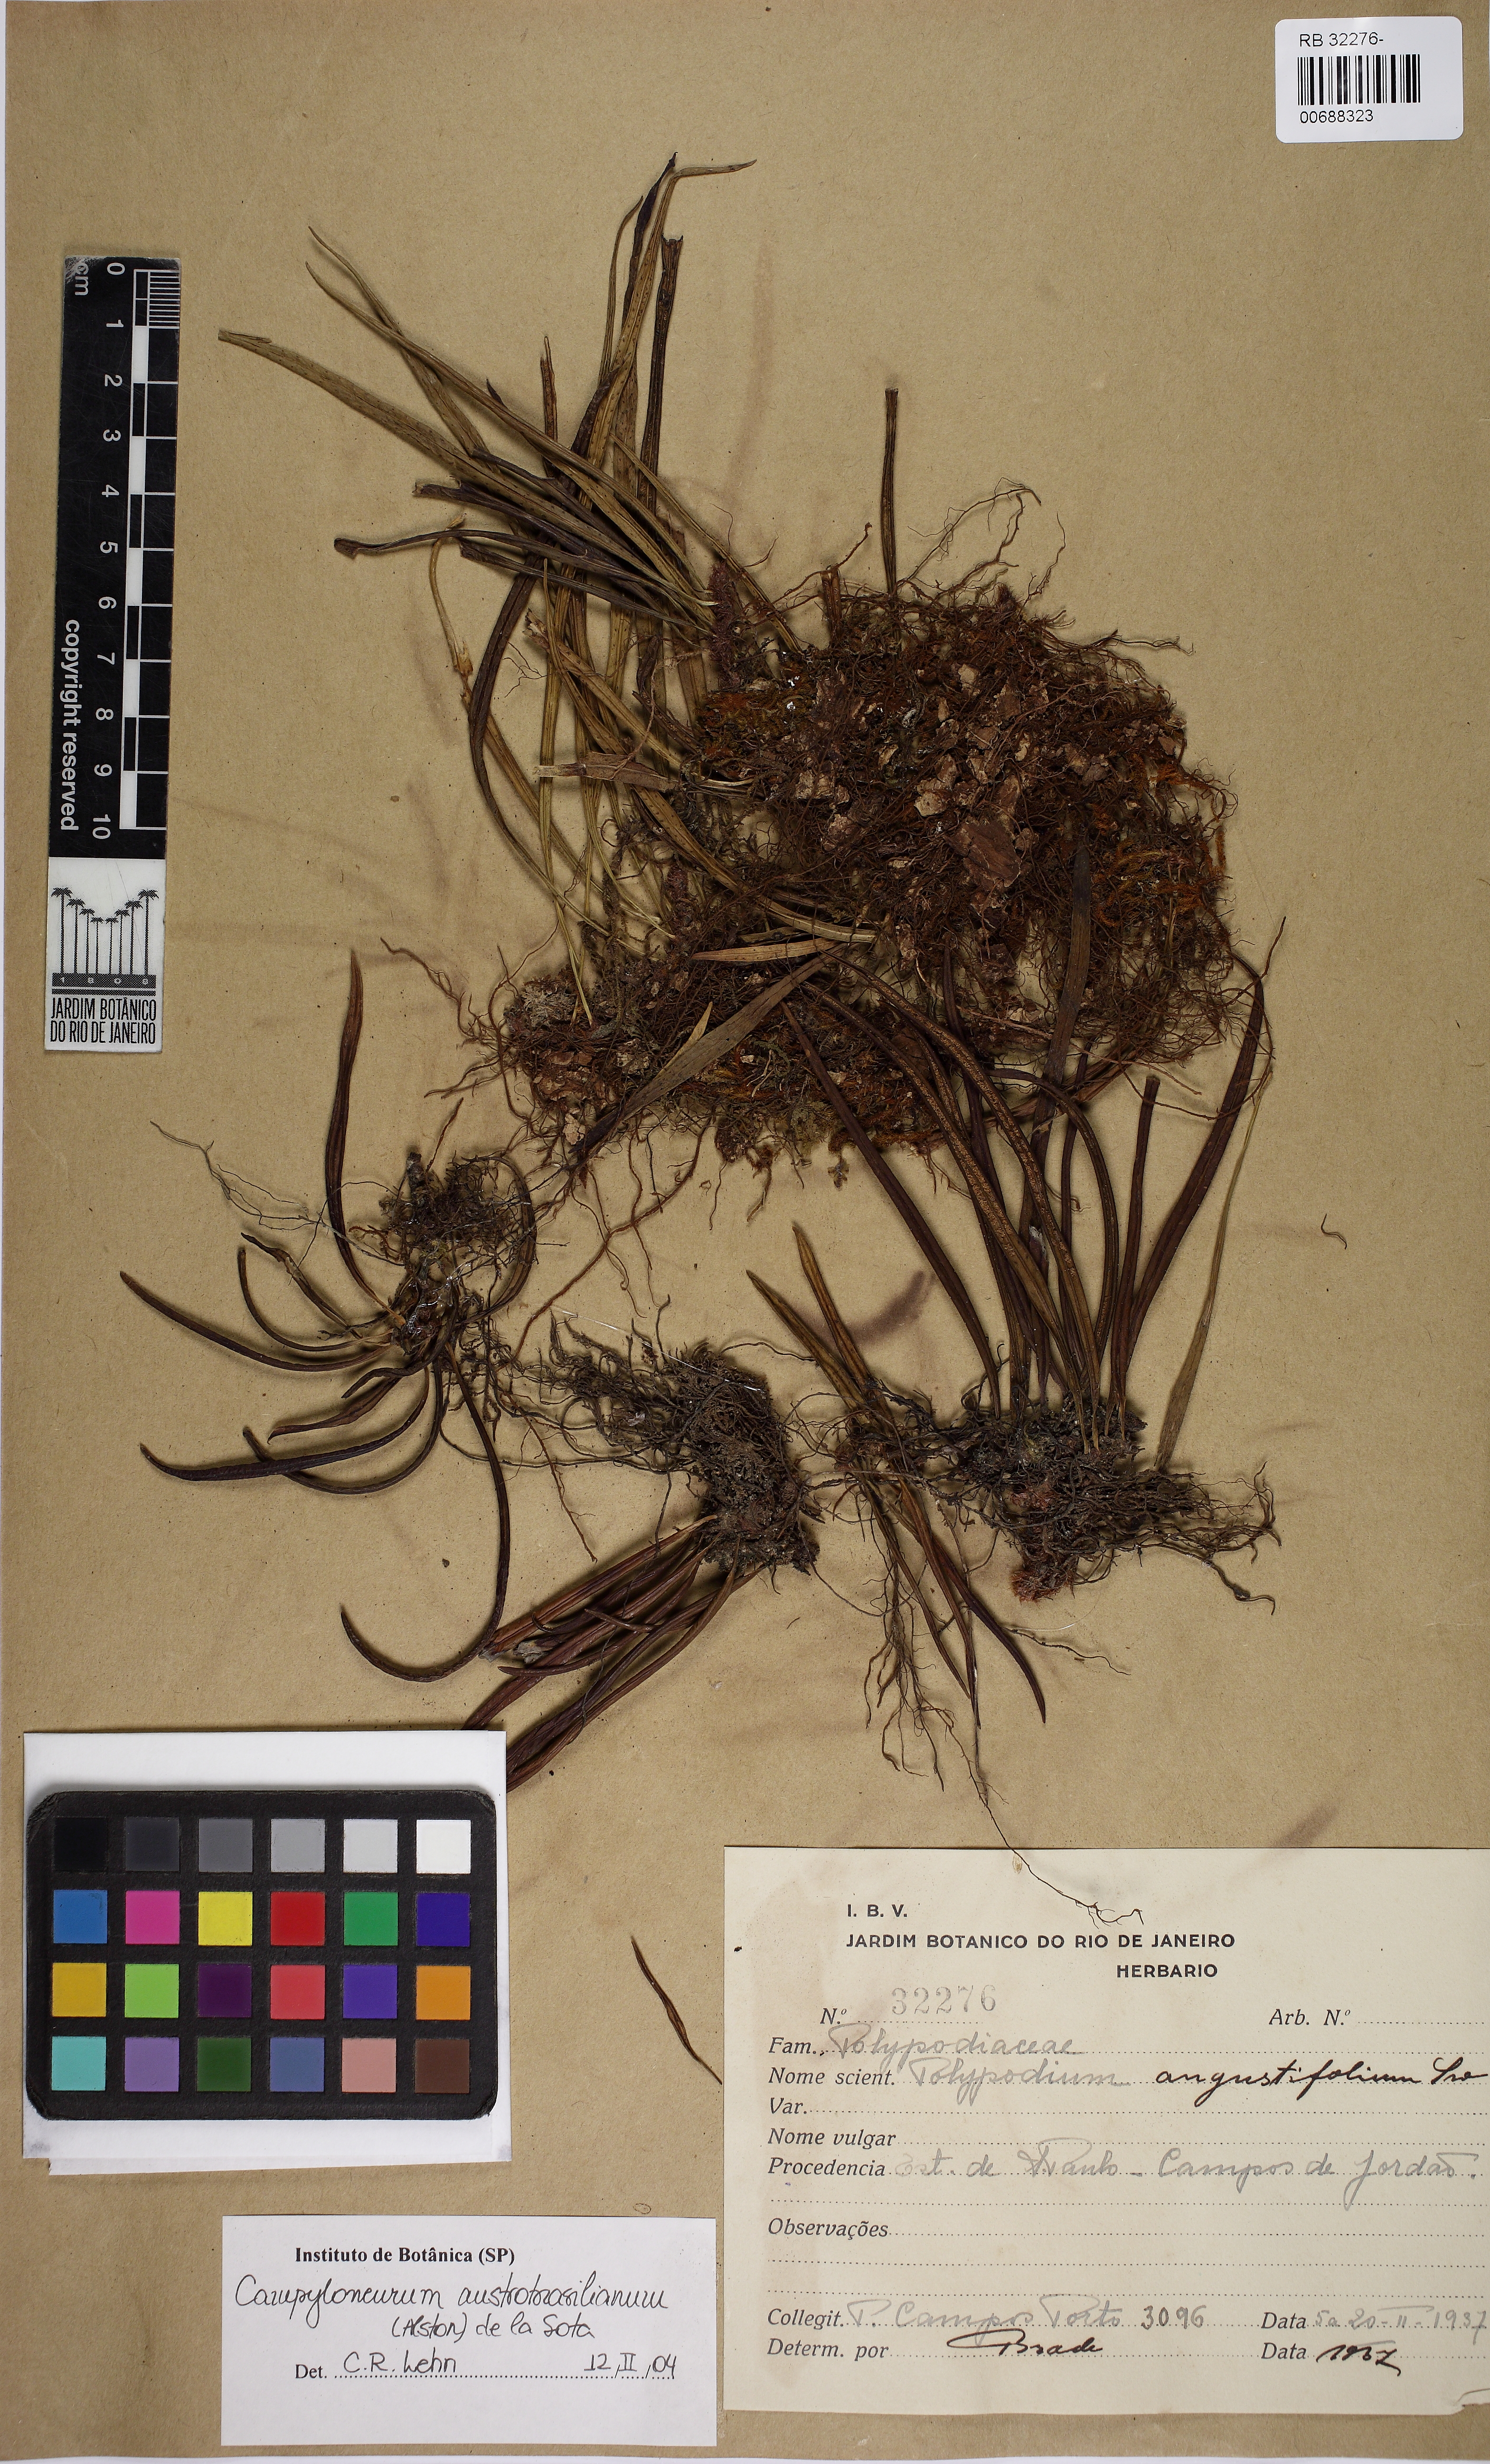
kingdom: Plantae
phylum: Tracheophyta
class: Polypodiopsida
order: Polypodiales
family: Polypodiaceae
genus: Campyloneurum
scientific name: Campyloneurum austrobrasilianum
